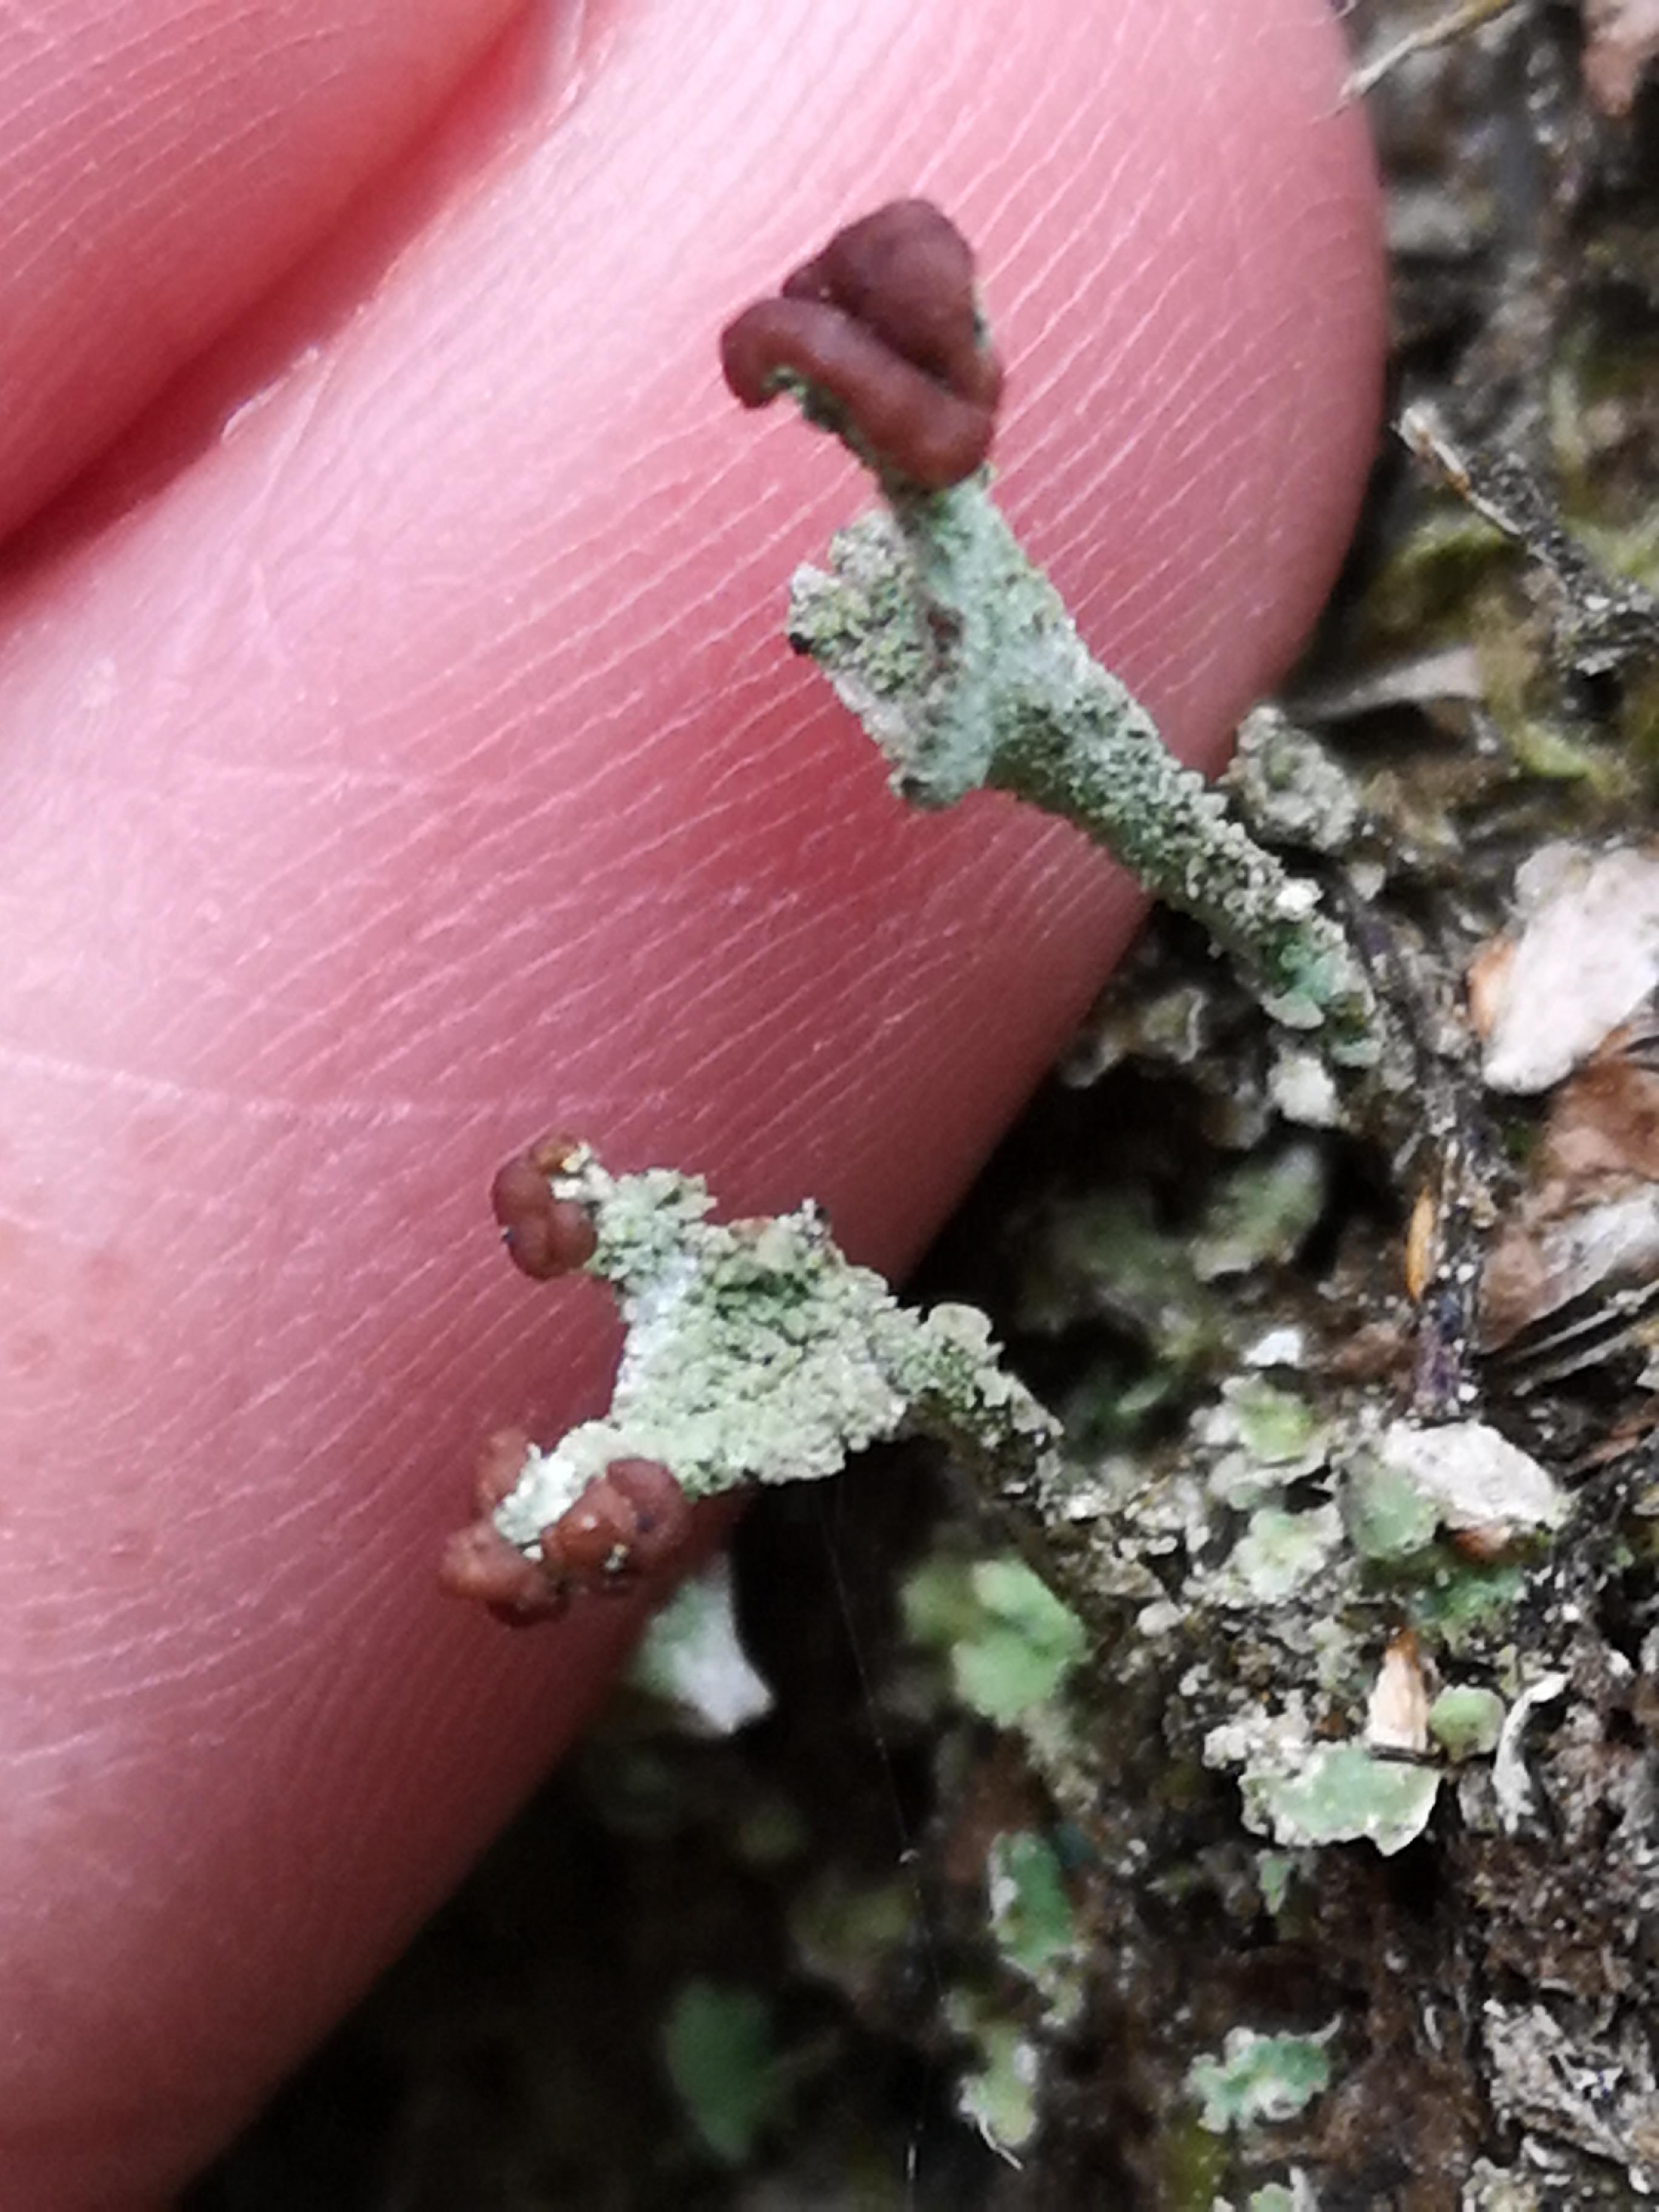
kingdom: Fungi
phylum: Ascomycota
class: Lecanoromycetes
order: Lecanorales
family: Cladoniaceae
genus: Cladonia
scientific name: Cladonia
